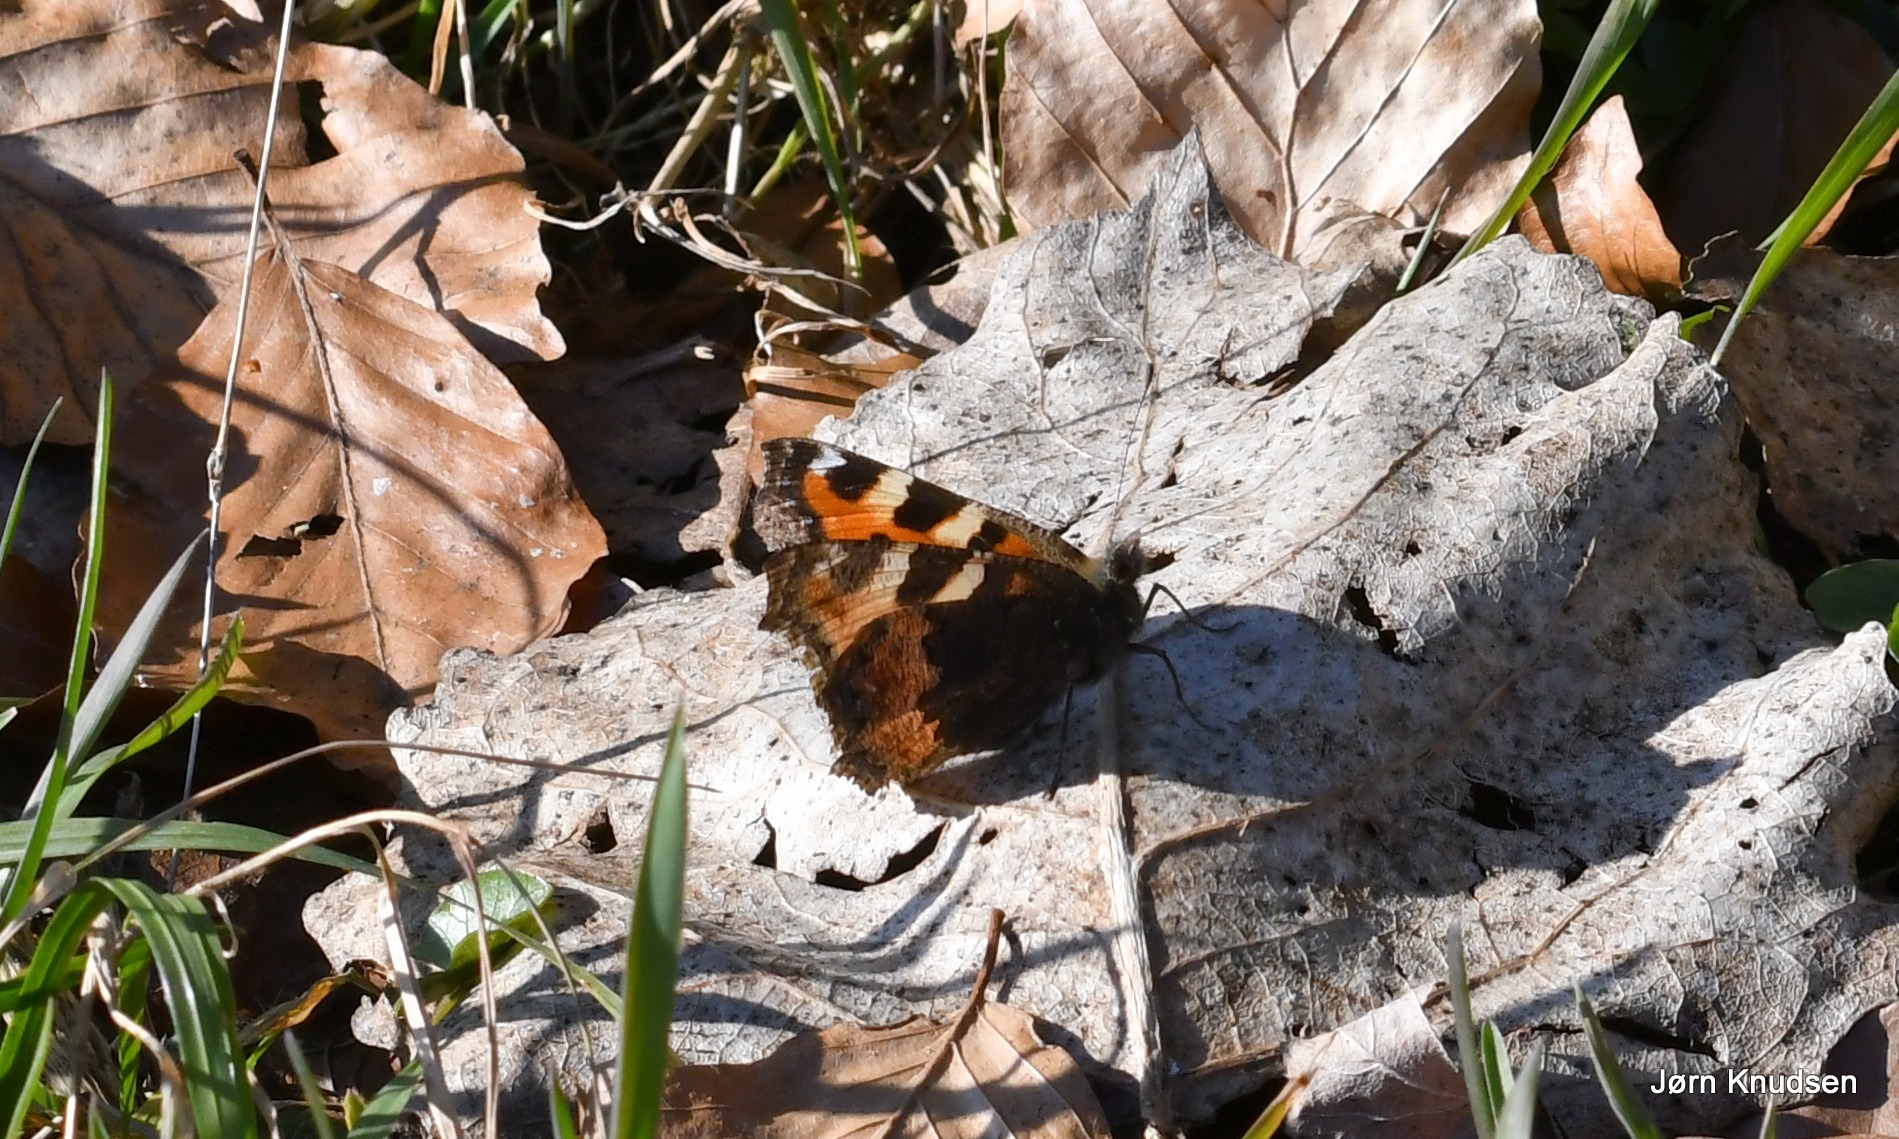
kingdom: Animalia
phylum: Arthropoda
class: Insecta
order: Lepidoptera
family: Nymphalidae
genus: Aglais
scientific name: Aglais urticae
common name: Nældens takvinge
